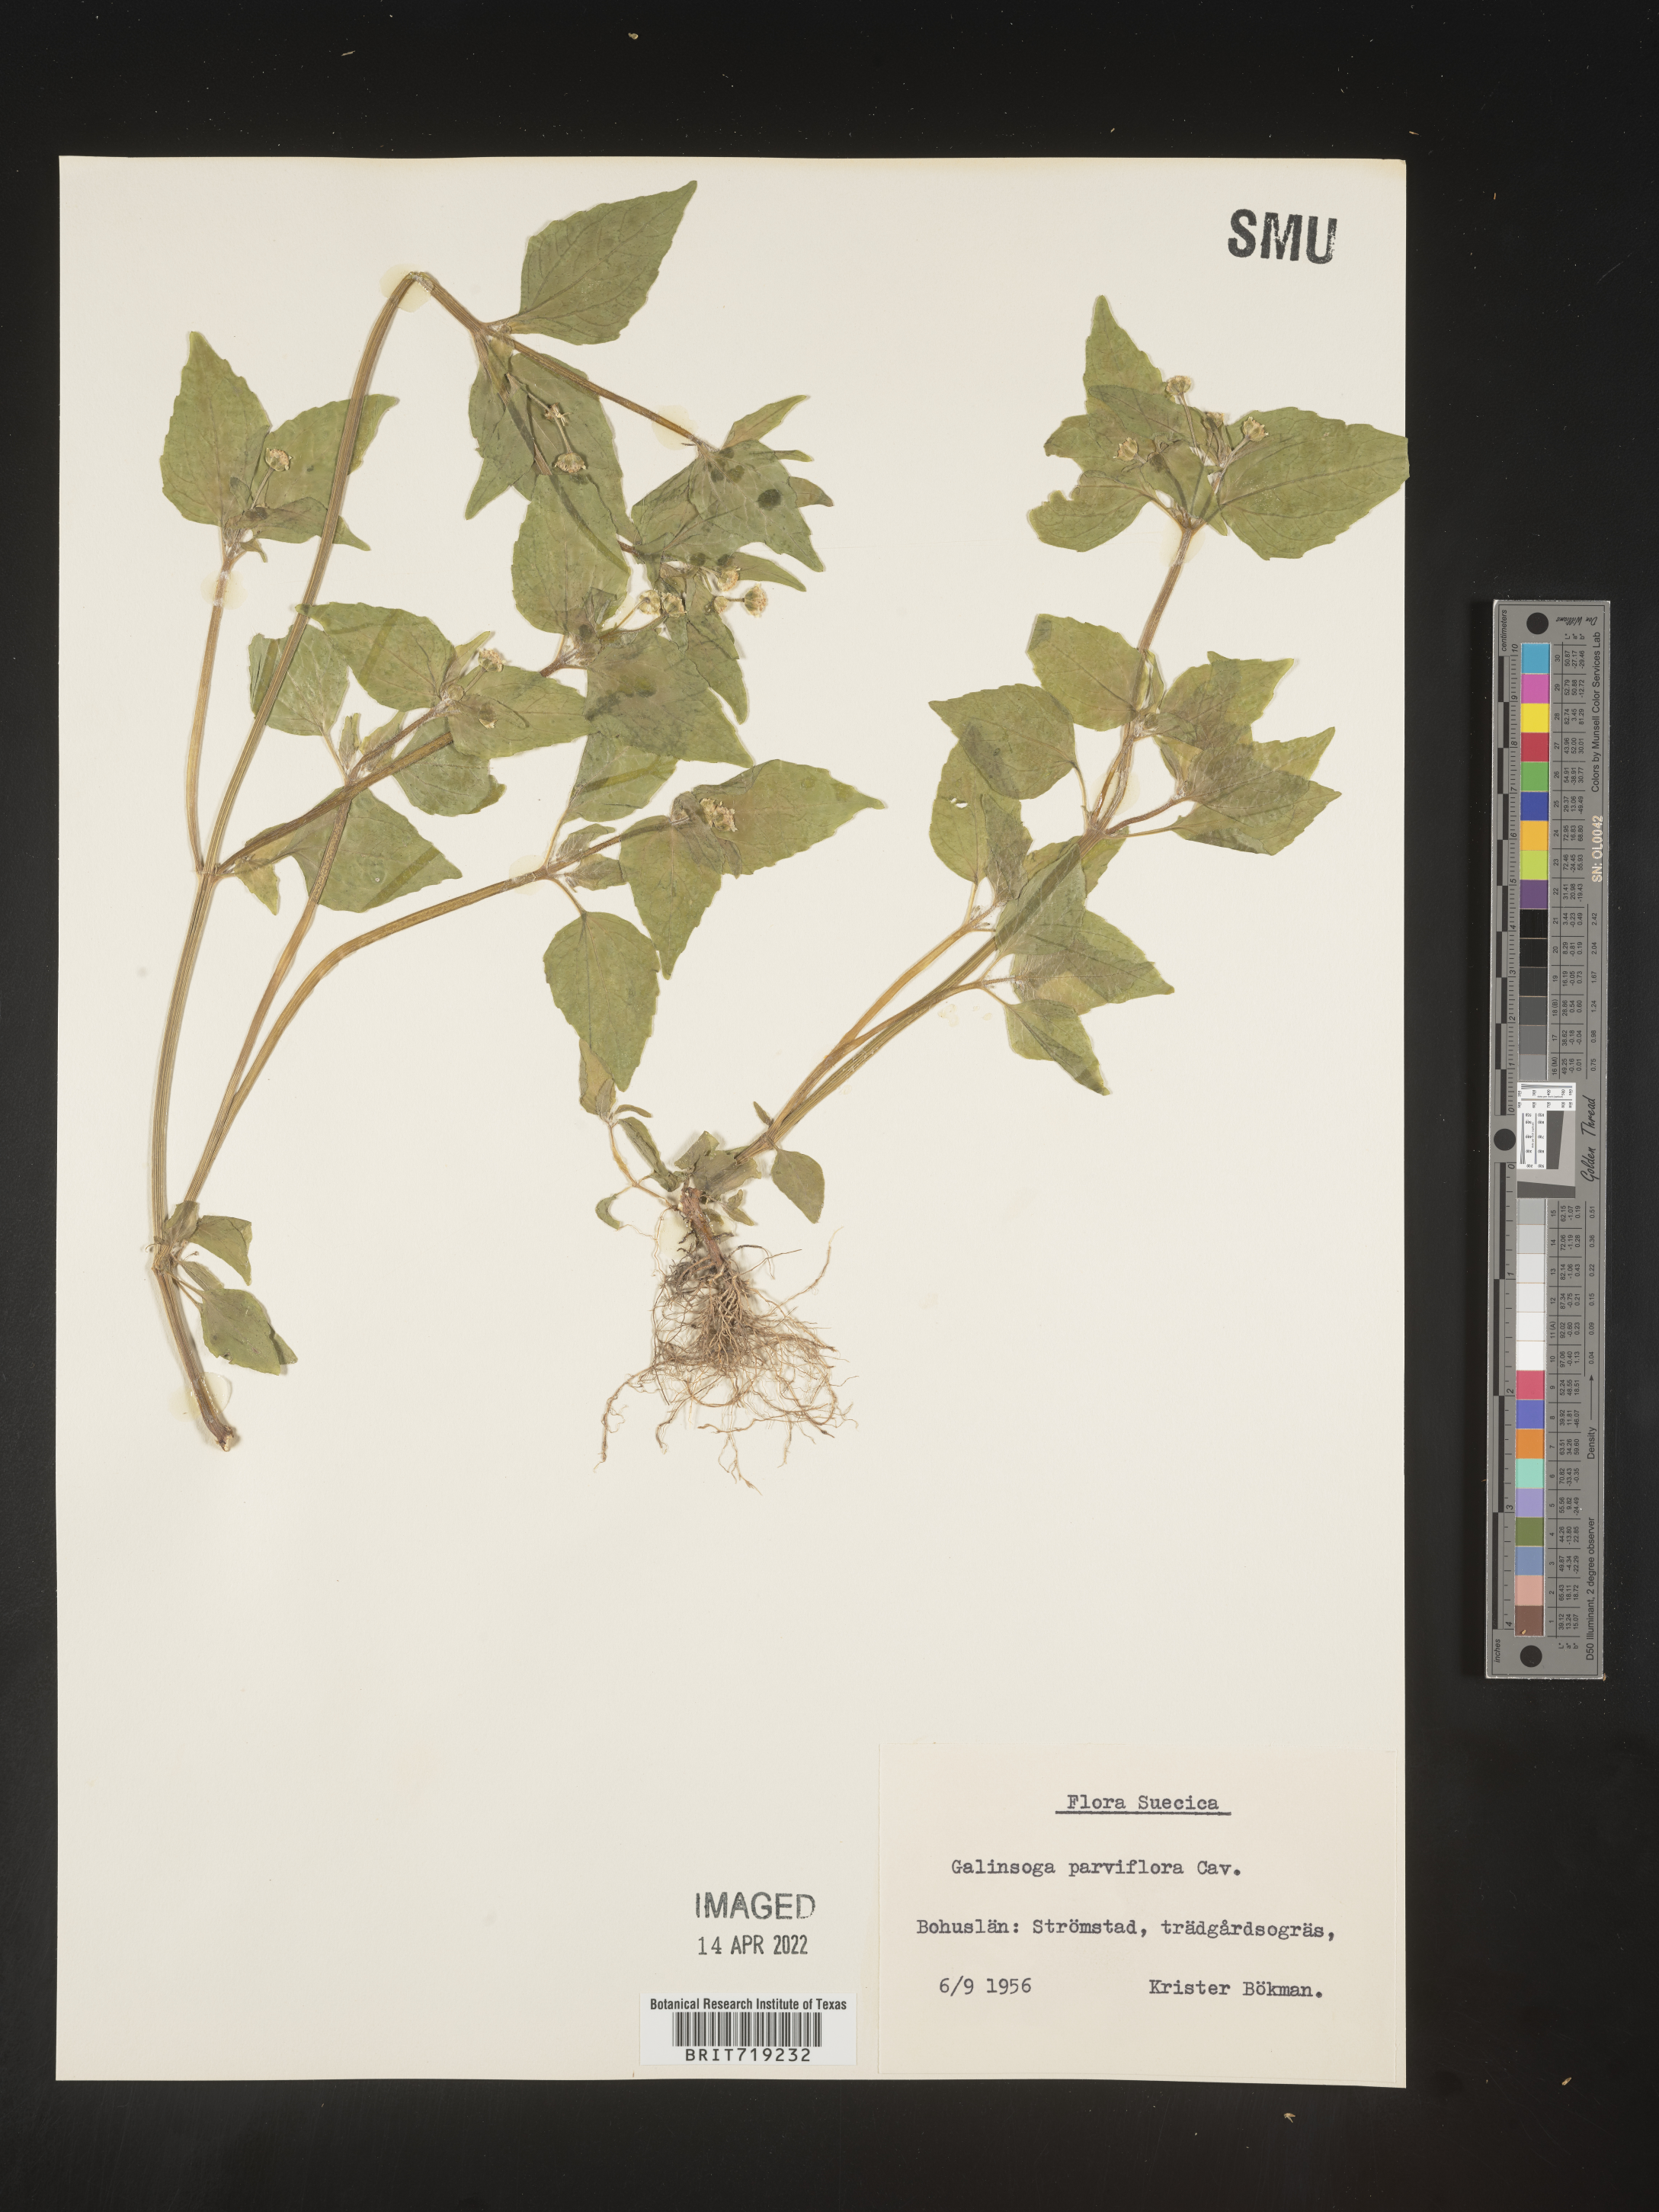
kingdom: Plantae
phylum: Tracheophyta
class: Magnoliopsida
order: Asterales
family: Asteraceae
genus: Galinsoga
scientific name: Galinsoga
